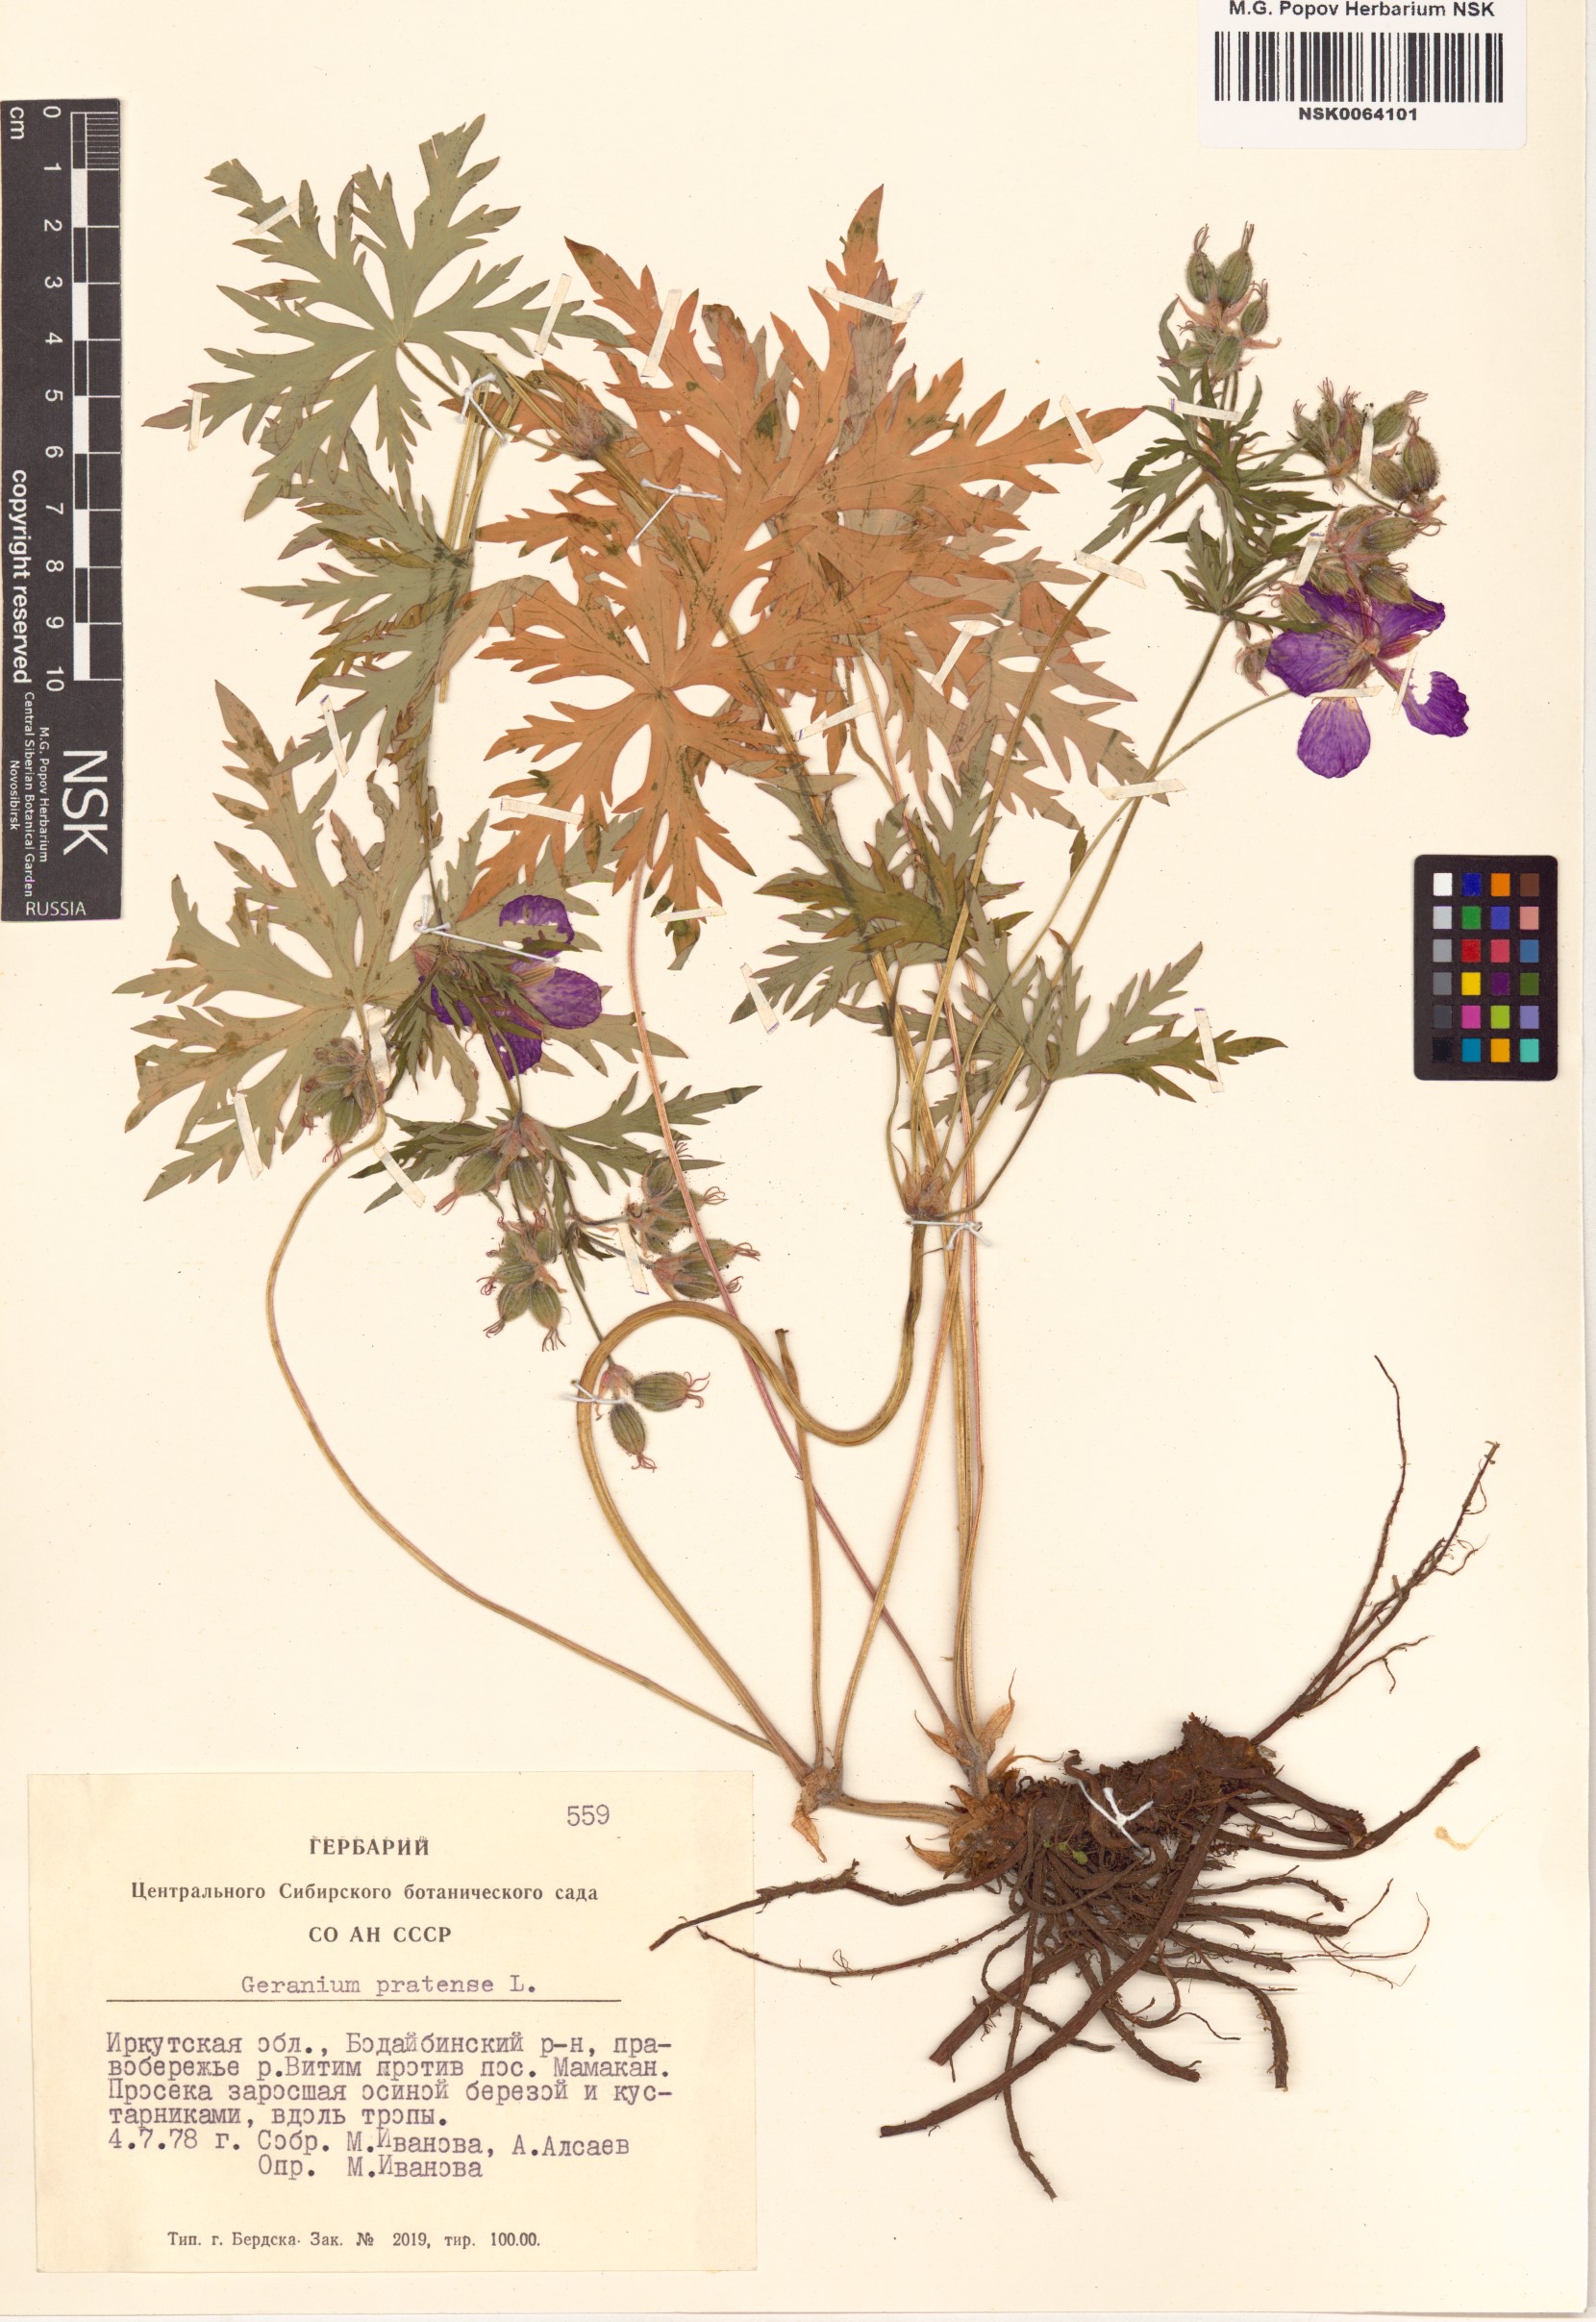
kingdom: Plantae
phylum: Tracheophyta
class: Magnoliopsida
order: Geraniales
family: Geraniaceae
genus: Geranium
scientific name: Geranium pratense
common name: Meadow crane's-bill
